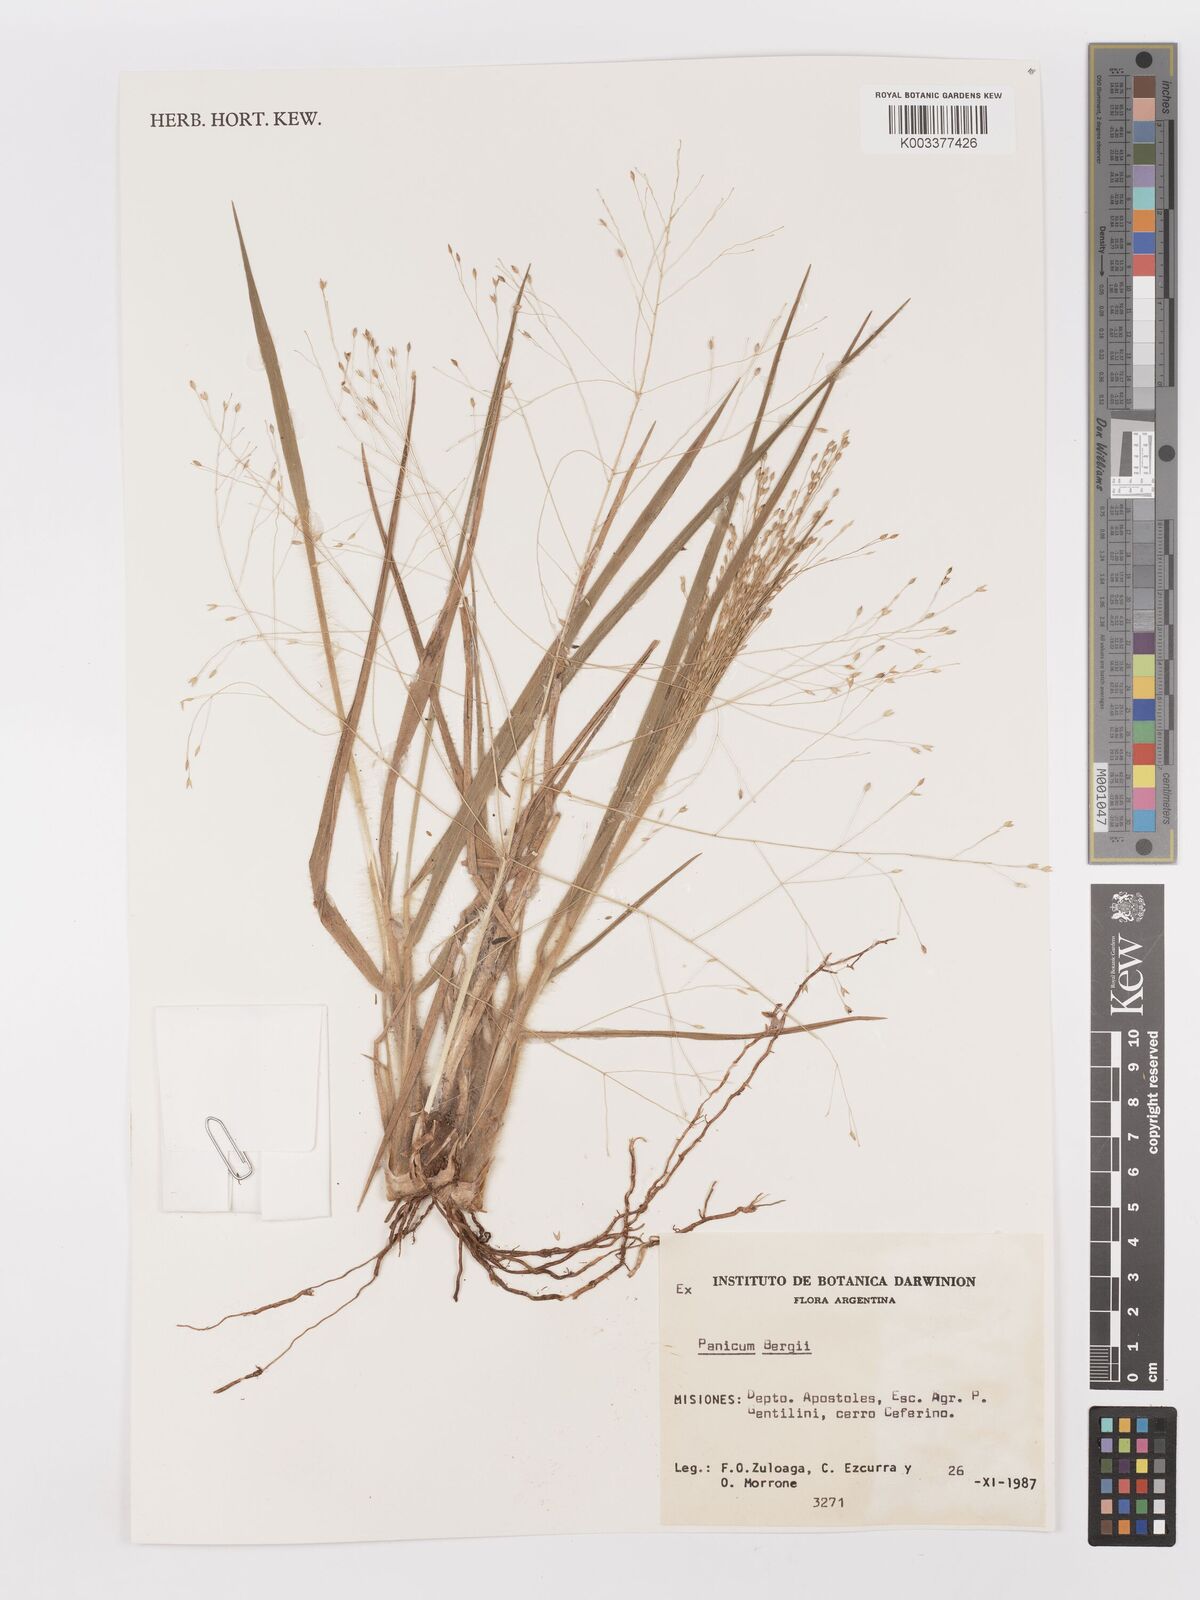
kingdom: Plantae
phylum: Tracheophyta
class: Liliopsida
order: Poales
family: Poaceae
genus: Panicum
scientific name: Panicum bergii
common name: Berg's panicgrass
